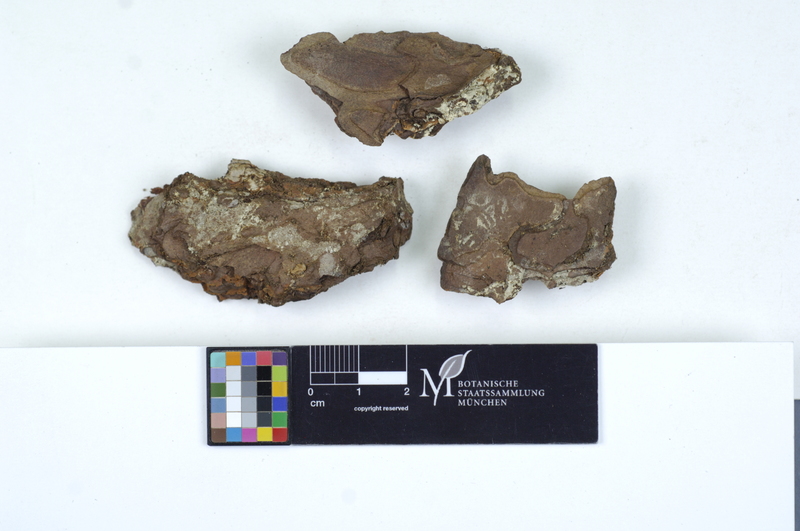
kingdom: Fungi
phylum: Basidiomycota
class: Agaricomycetes
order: Cantharellales
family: Botryobasidiaceae
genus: Botryobasidium
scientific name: Botryobasidium subcoronatum
